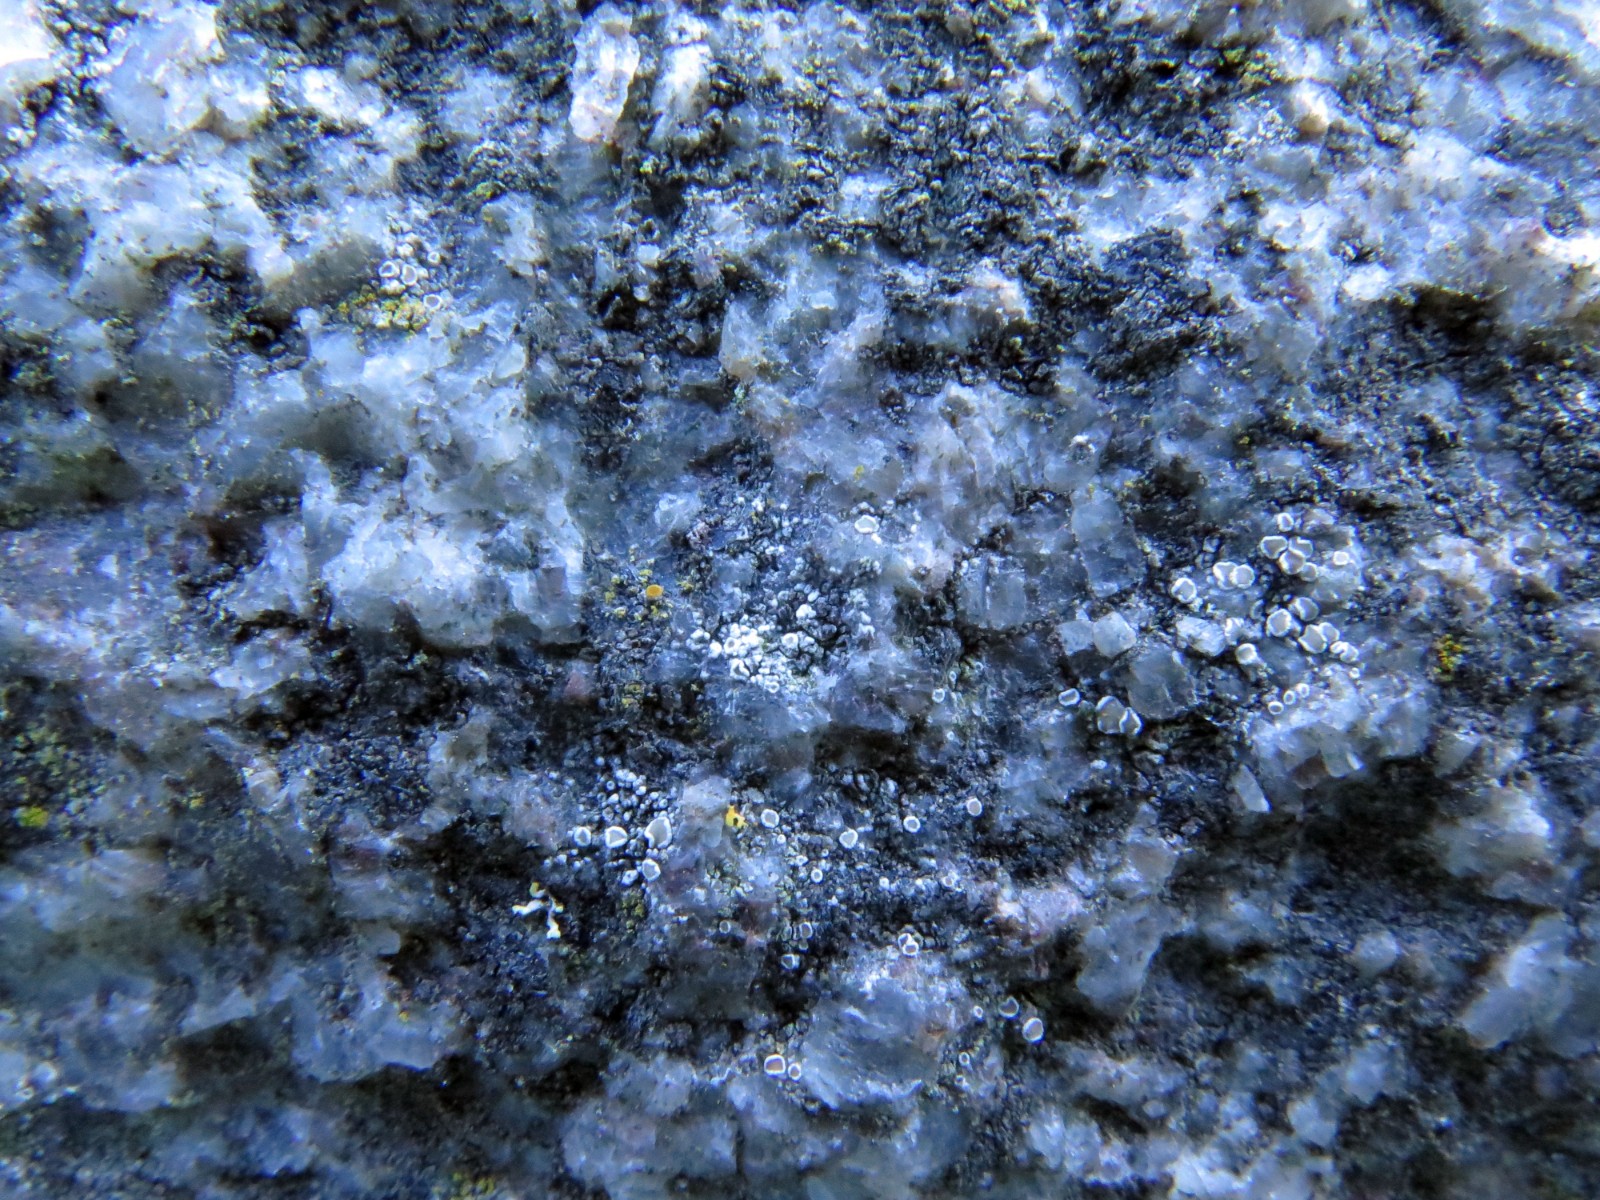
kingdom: Fungi
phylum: Ascomycota
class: Lecanoromycetes
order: Lecanorales
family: Lecanoraceae
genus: Polyozosia
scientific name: Polyozosia dispersa
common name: spredt kantskivelav
